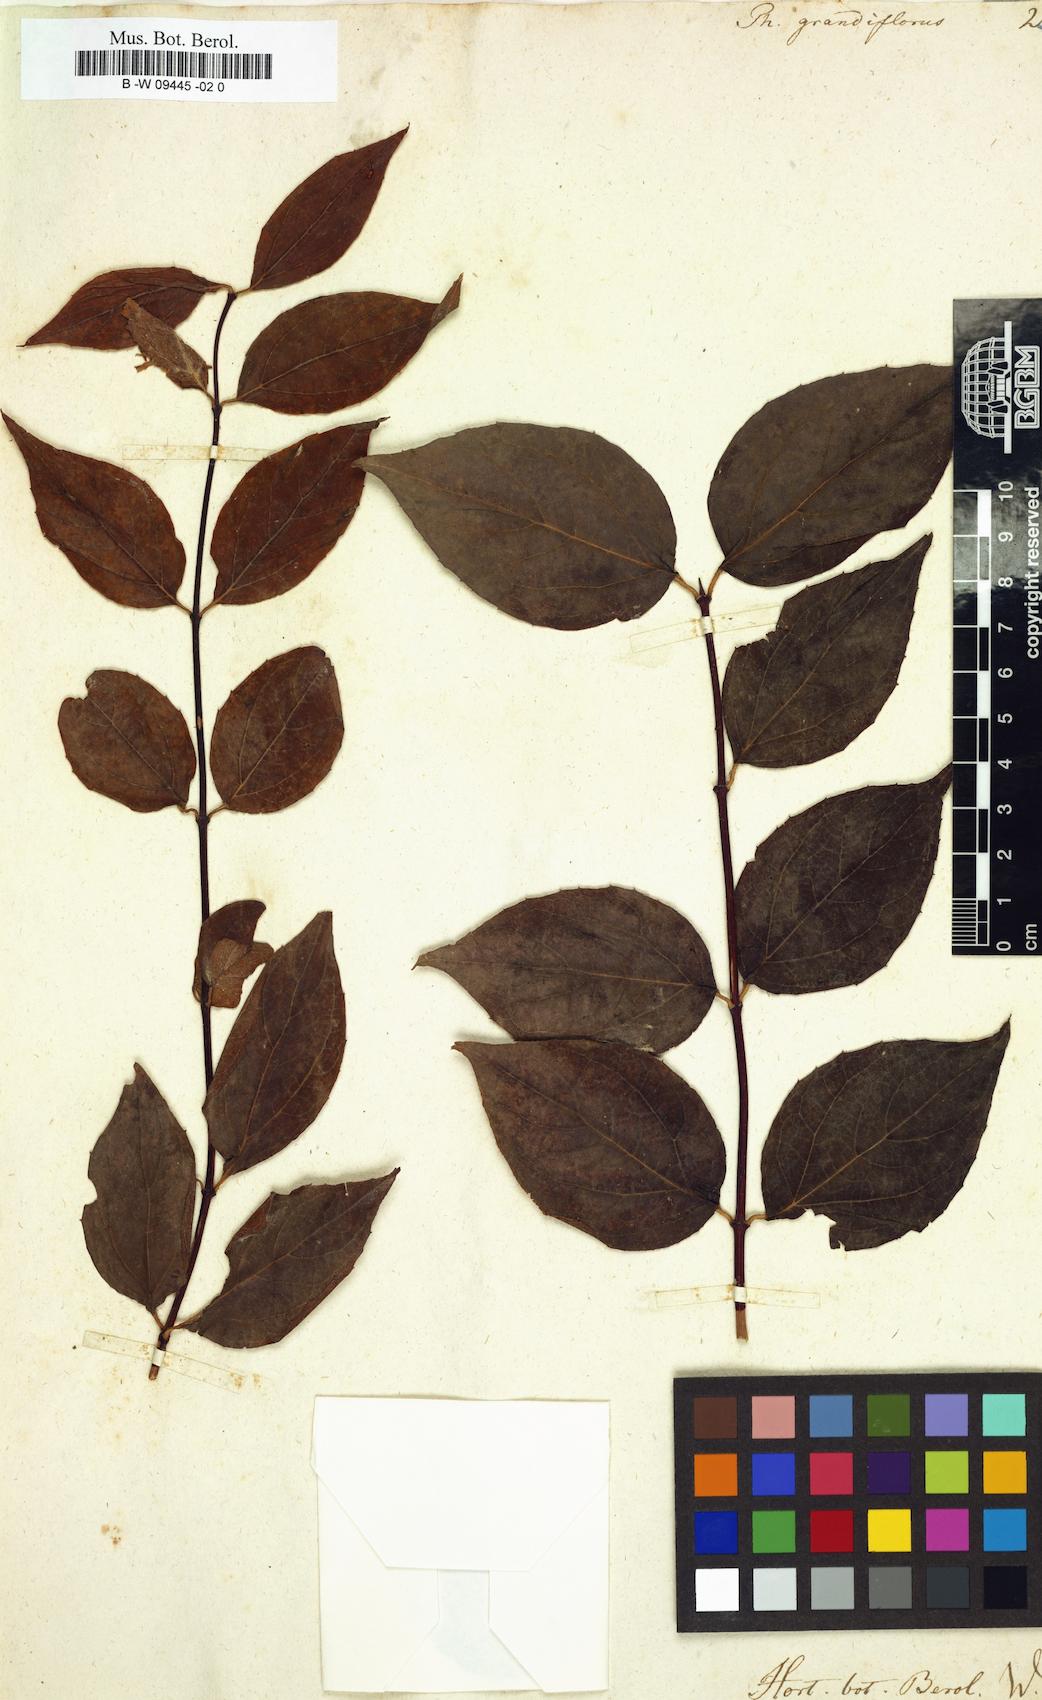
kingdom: Plantae
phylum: Tracheophyta
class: Magnoliopsida
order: Cornales
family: Hydrangeaceae
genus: Philadelphus
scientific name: Philadelphus
